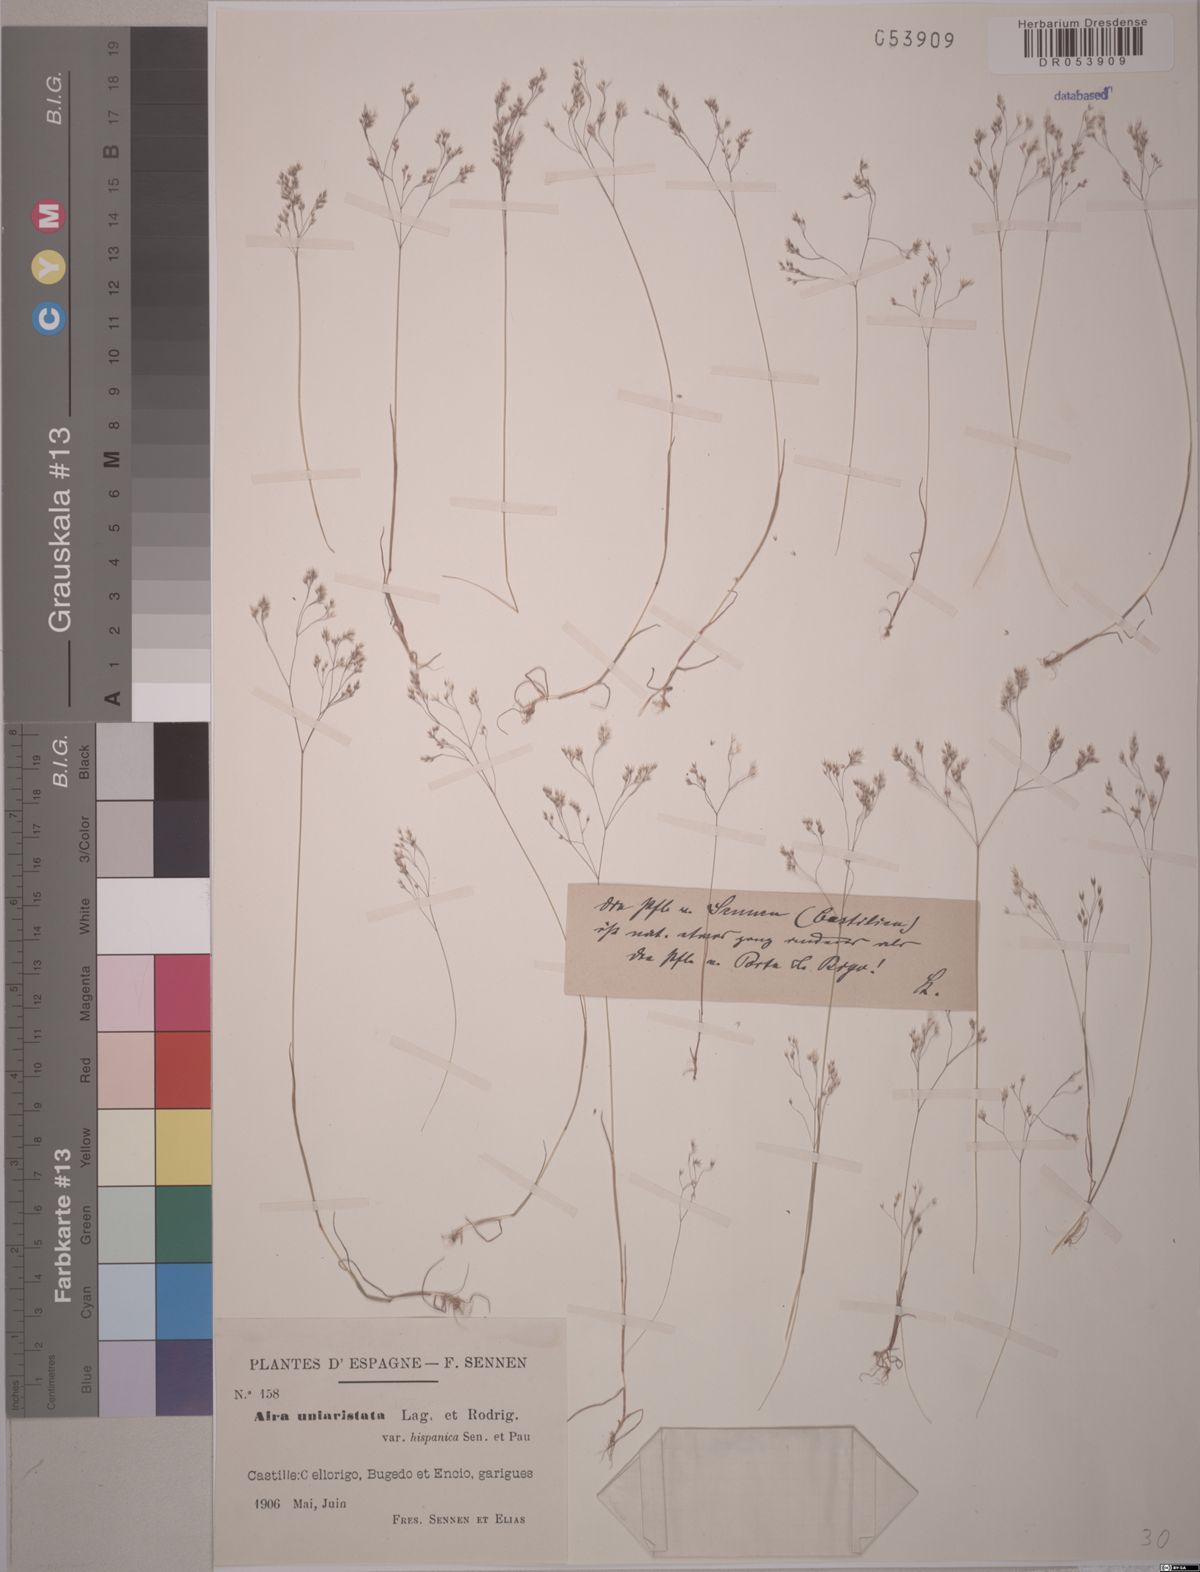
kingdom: Plantae
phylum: Tracheophyta
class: Liliopsida
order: Poales
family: Poaceae
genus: Aira
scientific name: Aira uniaristata
